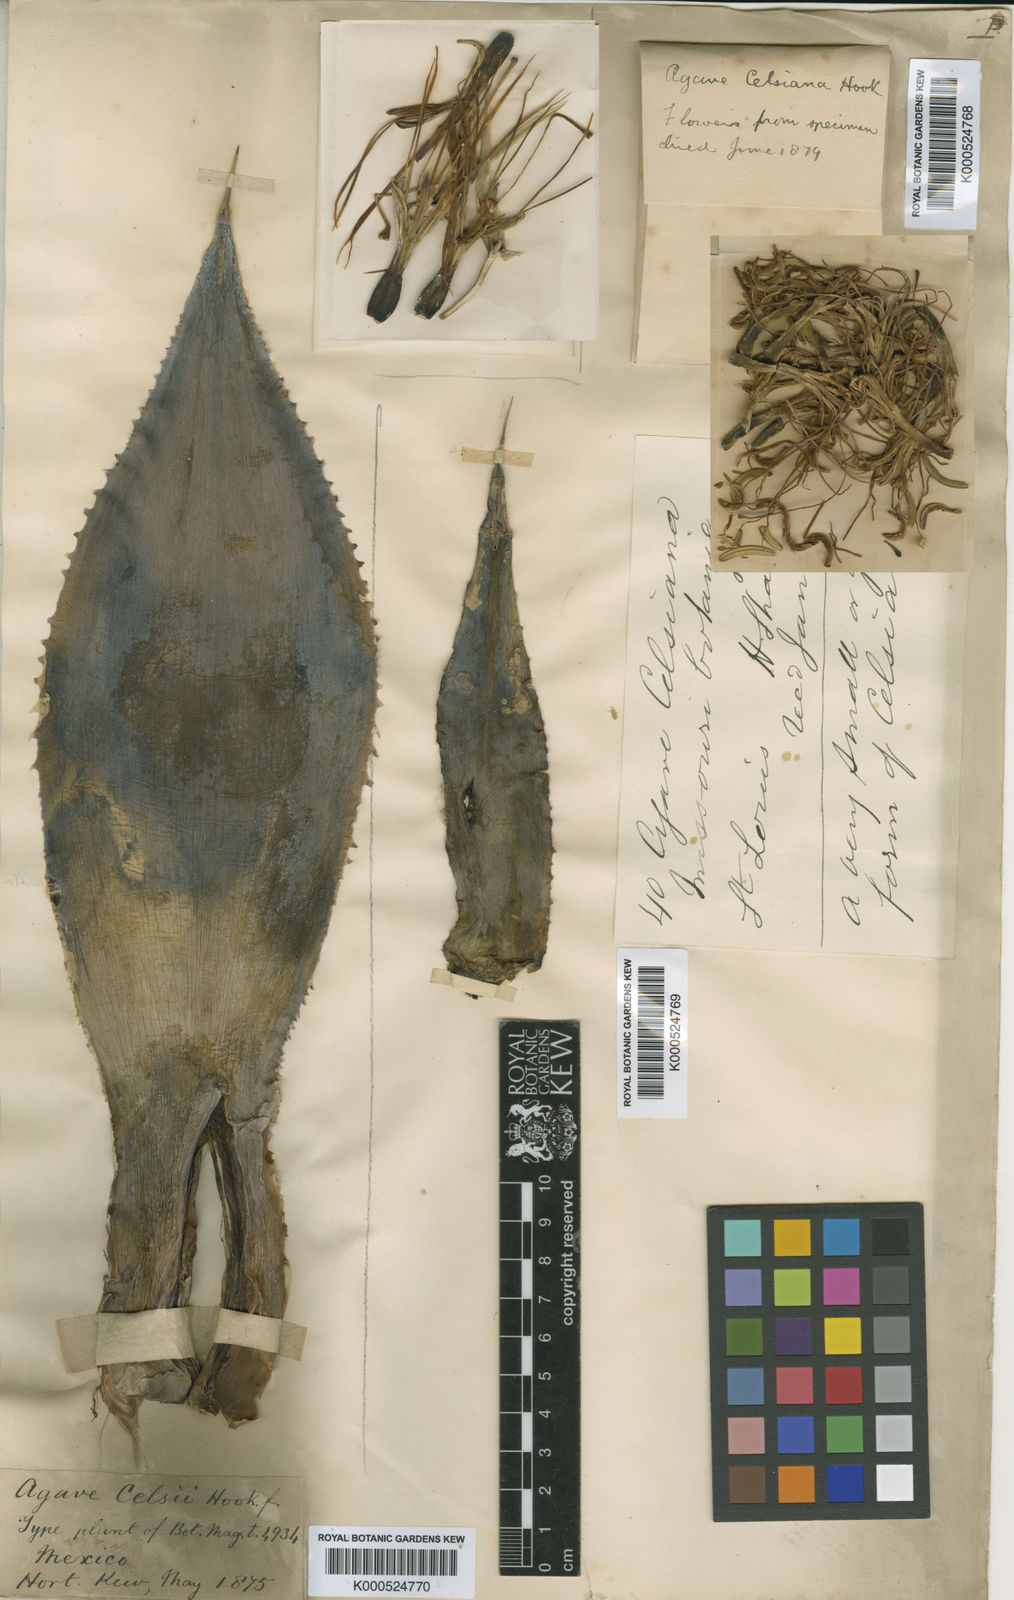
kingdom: Plantae
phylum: Tracheophyta
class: Liliopsida
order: Asparagales
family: Asparagaceae
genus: Agave
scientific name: Agave mitis
